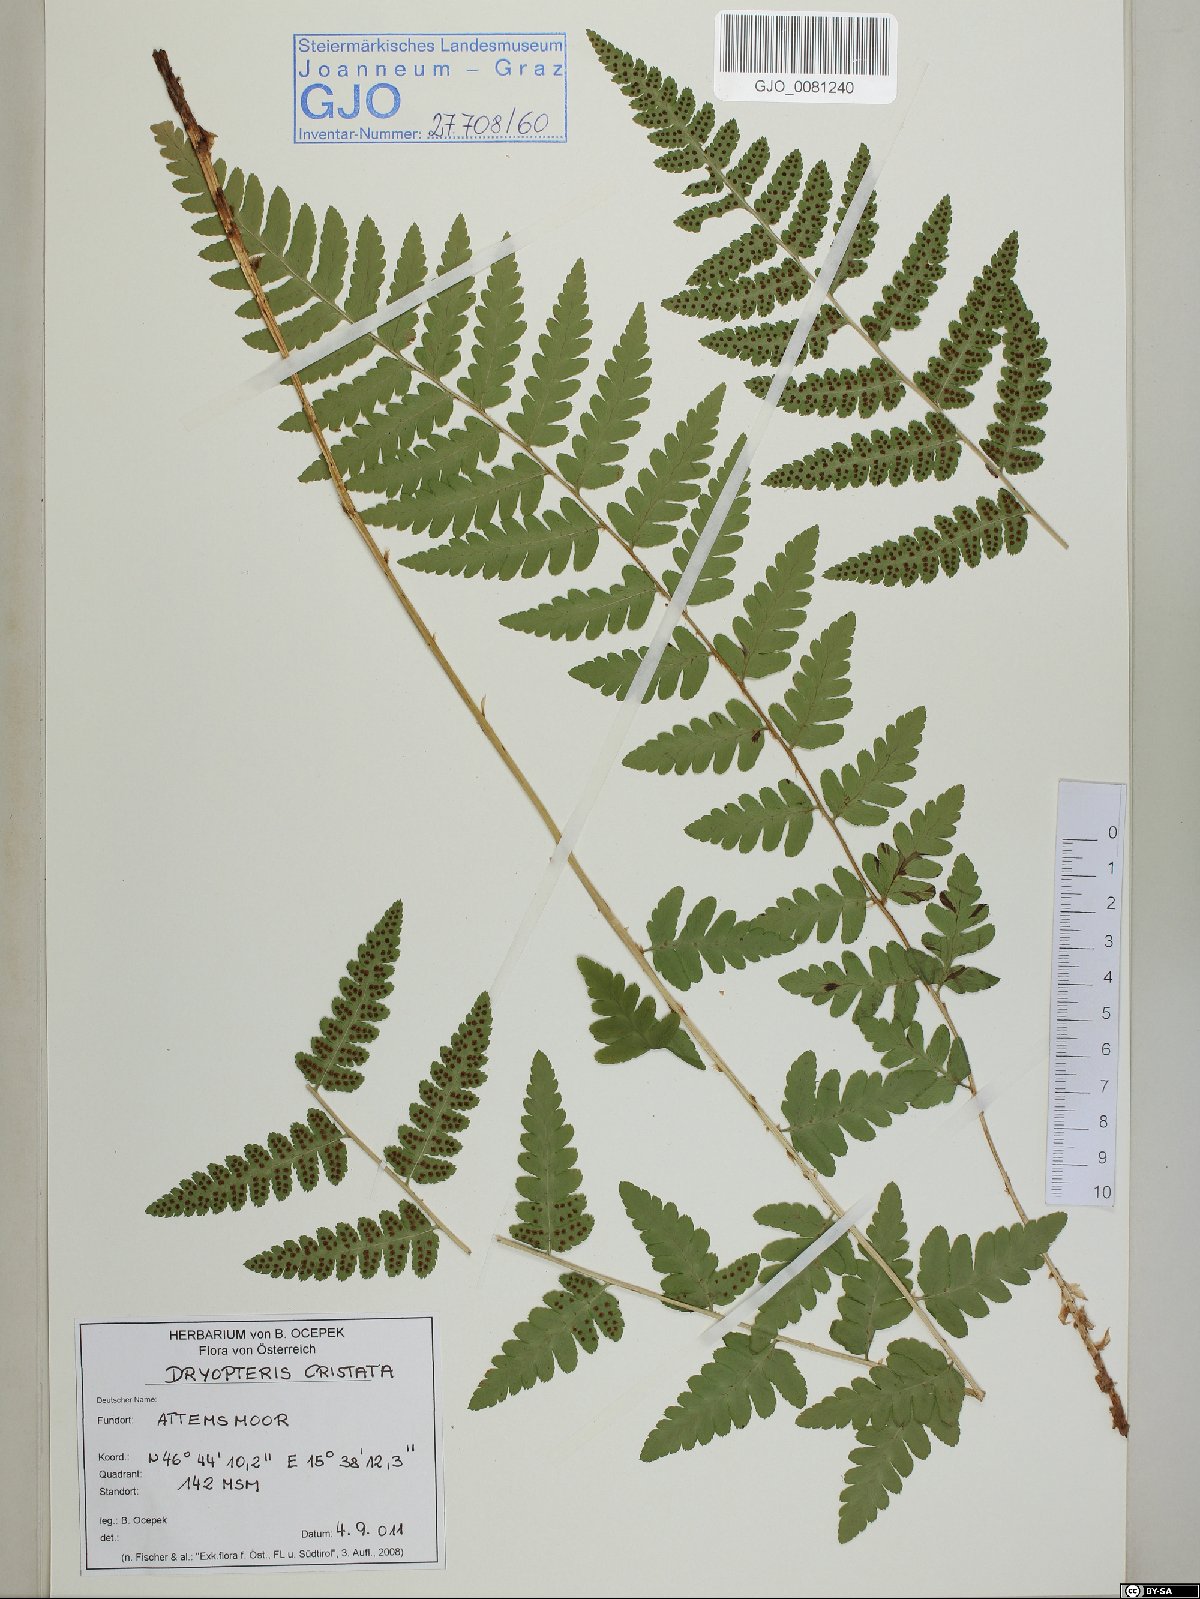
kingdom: Plantae
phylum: Tracheophyta
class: Polypodiopsida
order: Polypodiales
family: Dryopteridaceae
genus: Dryopteris
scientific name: Dryopteris cristata
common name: Crested wood fern
